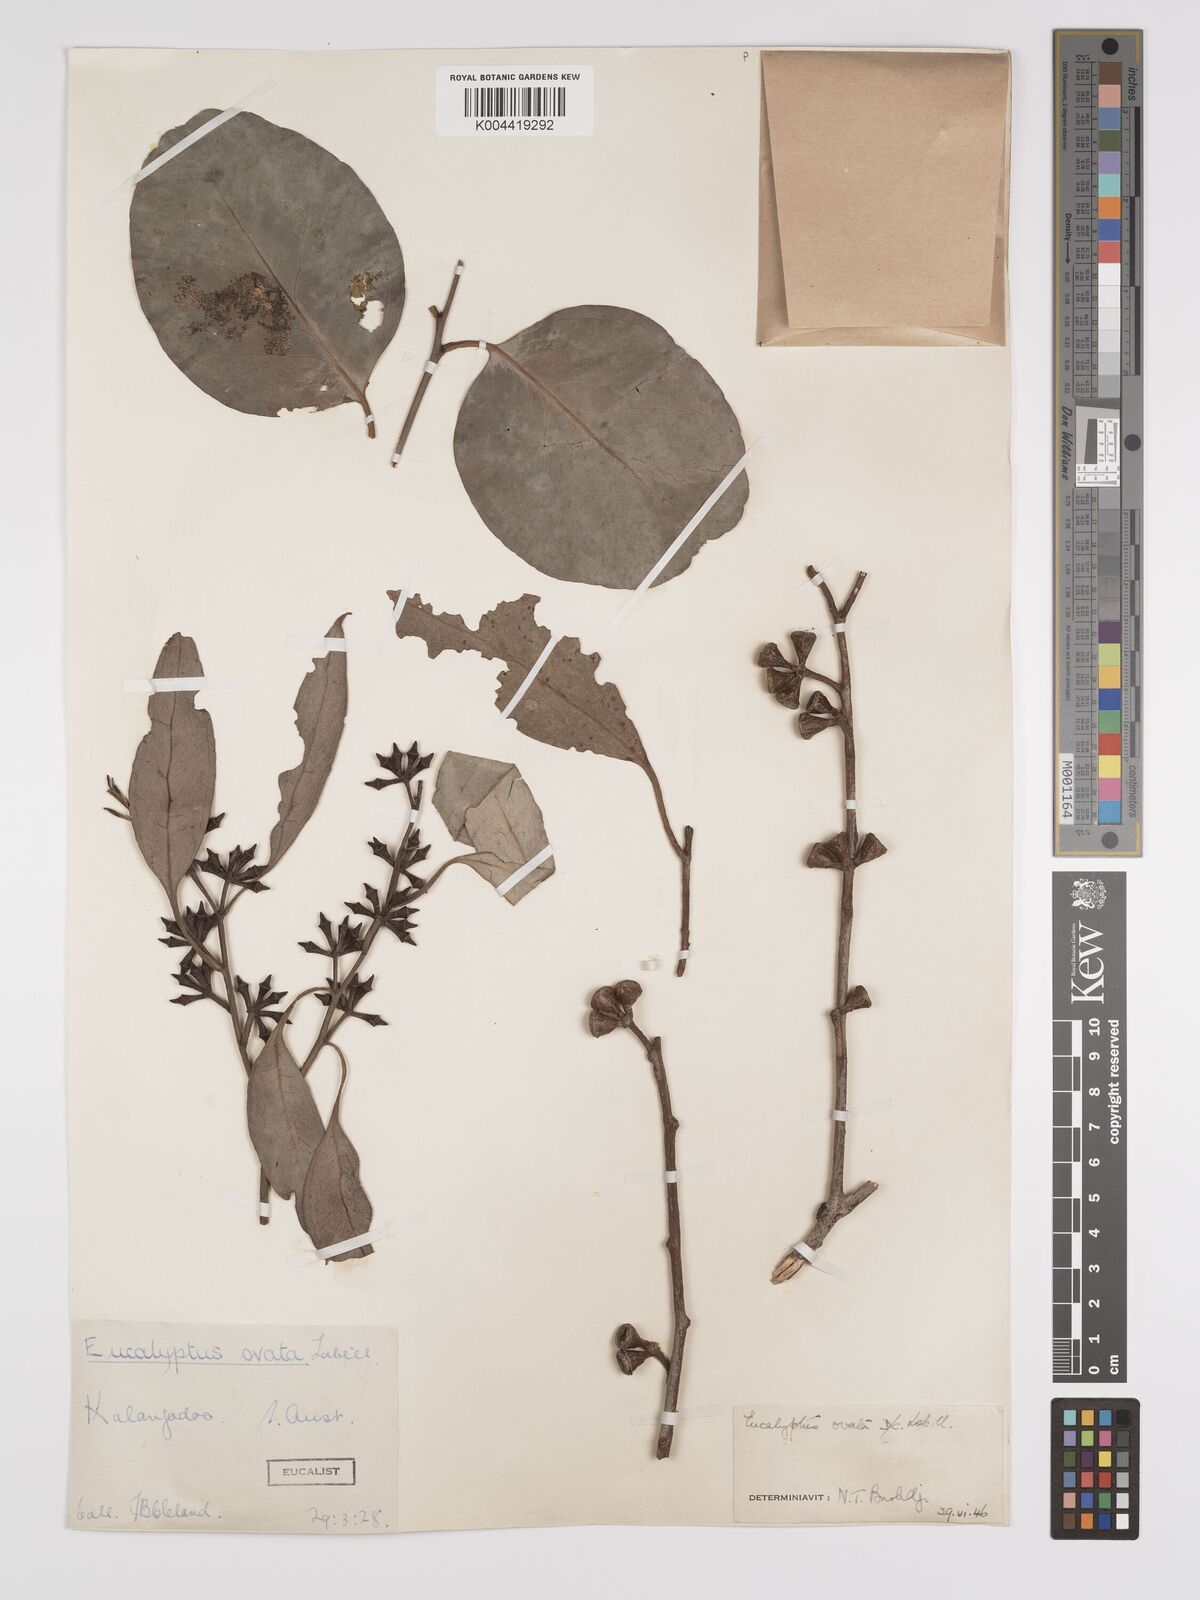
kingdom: Plantae
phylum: Tracheophyta
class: Magnoliopsida
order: Myrtales
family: Myrtaceae
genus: Eucalyptus
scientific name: Eucalyptus ovata
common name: Black-gum
